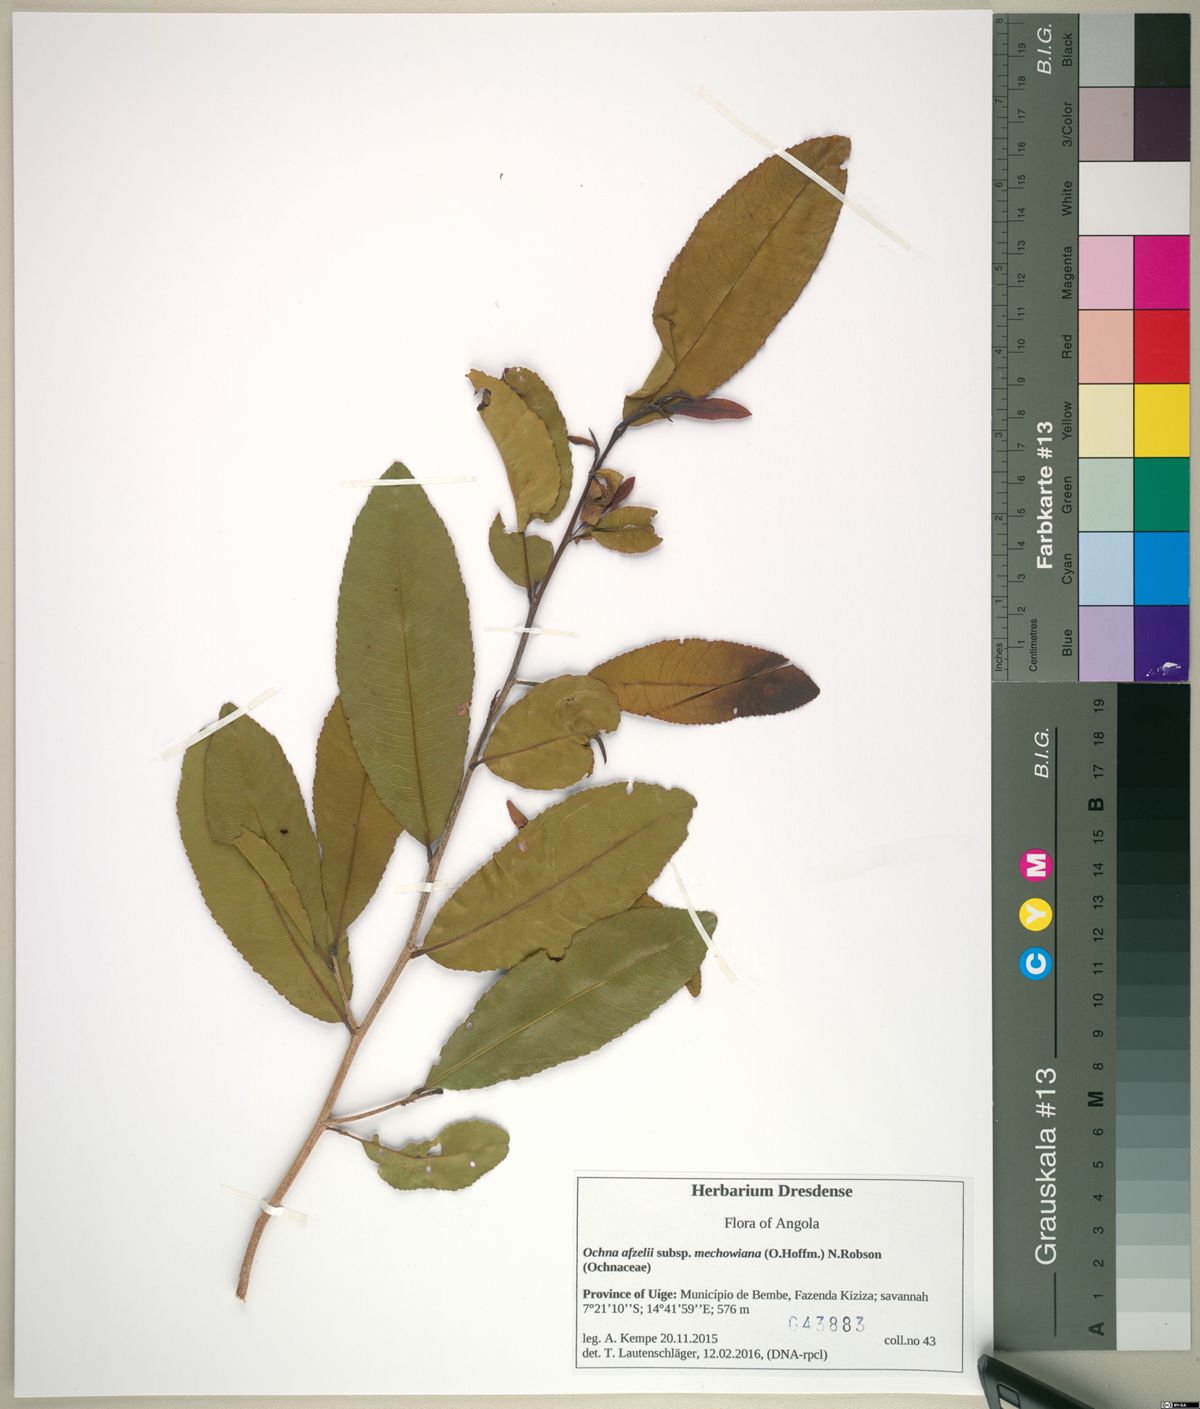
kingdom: Plantae
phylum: Tracheophyta
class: Magnoliopsida
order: Malpighiales
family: Ochnaceae
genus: Ochna
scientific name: Ochna afzelii
